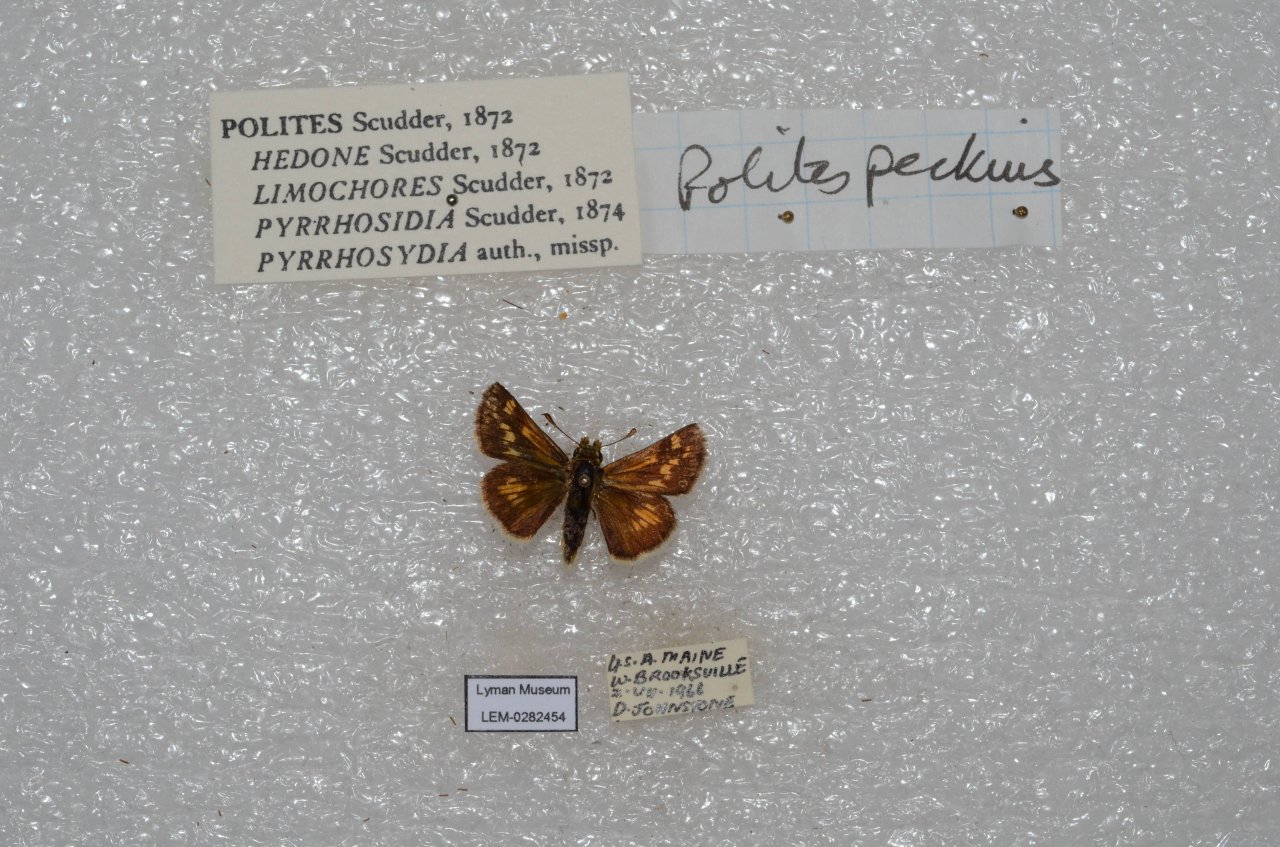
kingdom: Animalia
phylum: Arthropoda
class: Insecta
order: Lepidoptera
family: Hesperiidae
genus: Polites
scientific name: Polites coras
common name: Peck's Skipper
